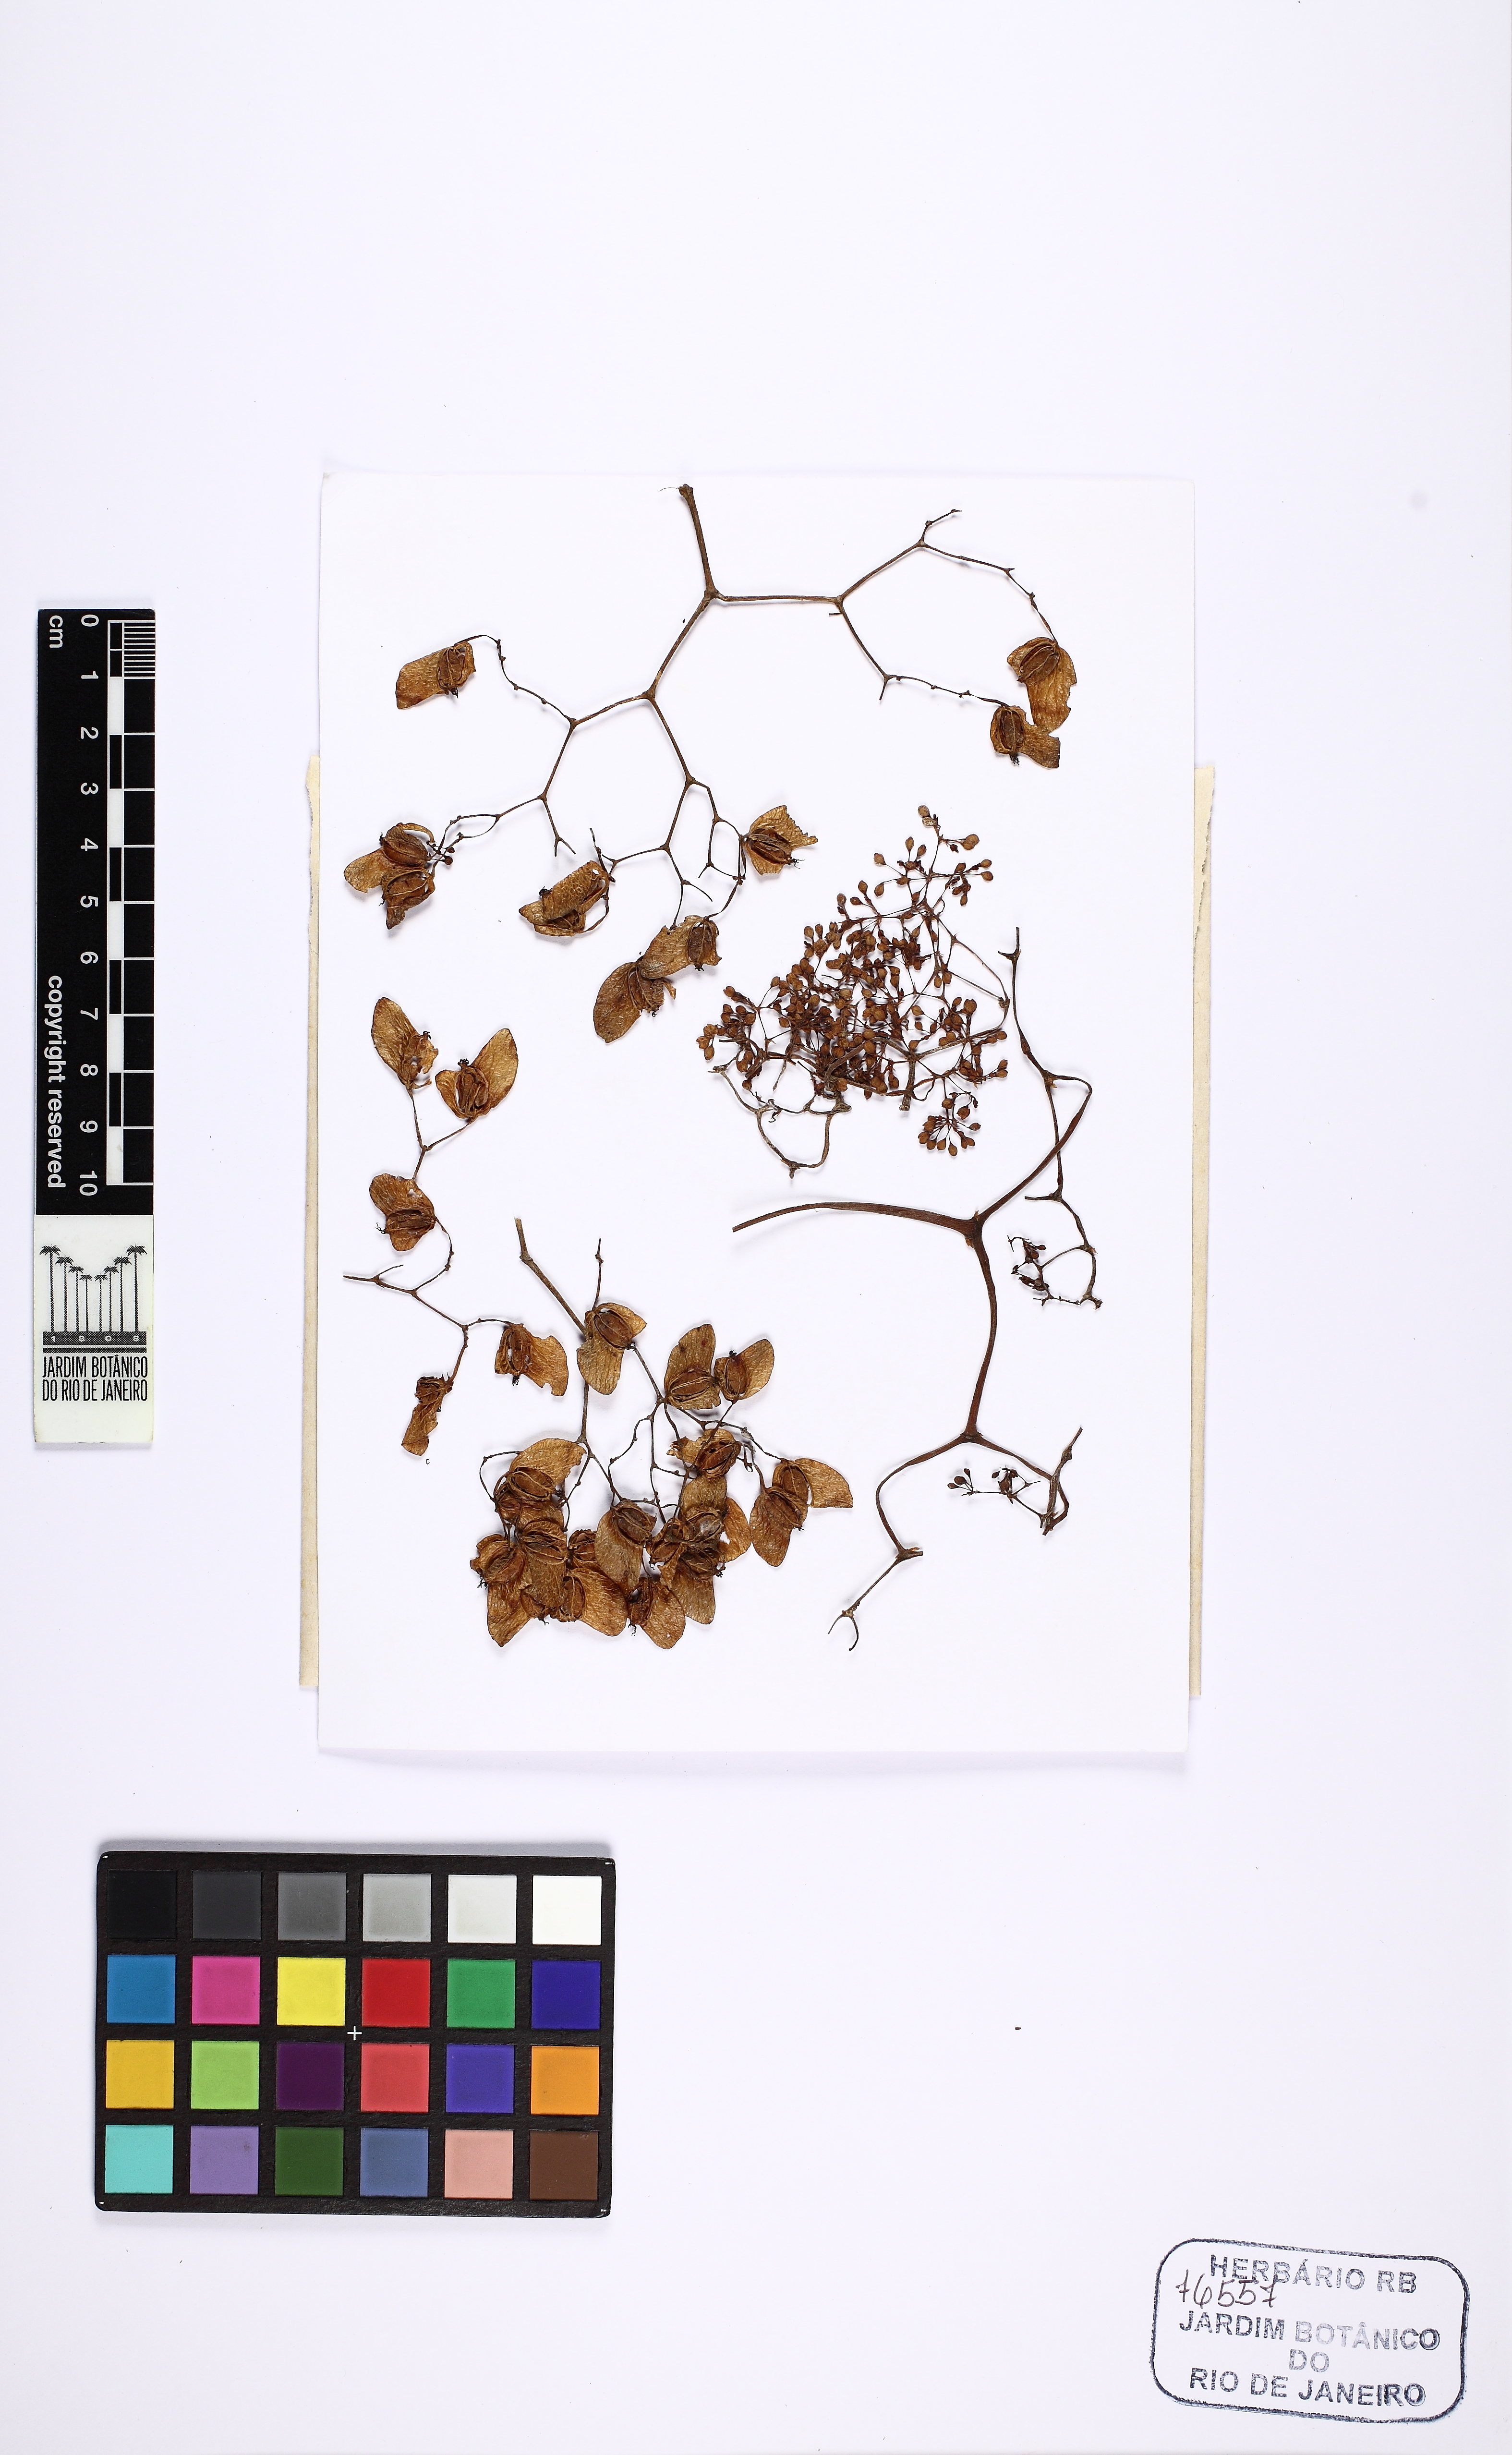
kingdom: Plantae
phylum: Tracheophyta
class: Magnoliopsida
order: Cucurbitales
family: Begoniaceae
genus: Begonia
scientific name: Begonia convolvulacea
